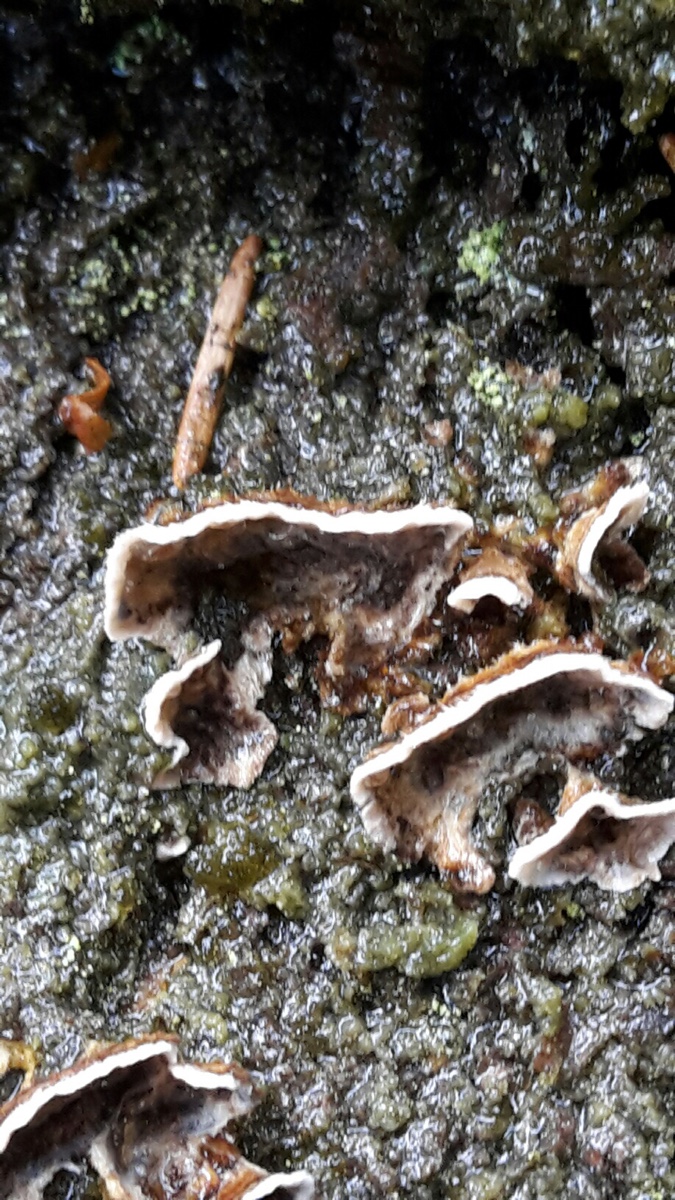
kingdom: Fungi
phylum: Basidiomycota
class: Agaricomycetes
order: Russulales
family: Stereaceae
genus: Stereum
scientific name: Stereum sanguinolentum
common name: blødende lædersvamp
